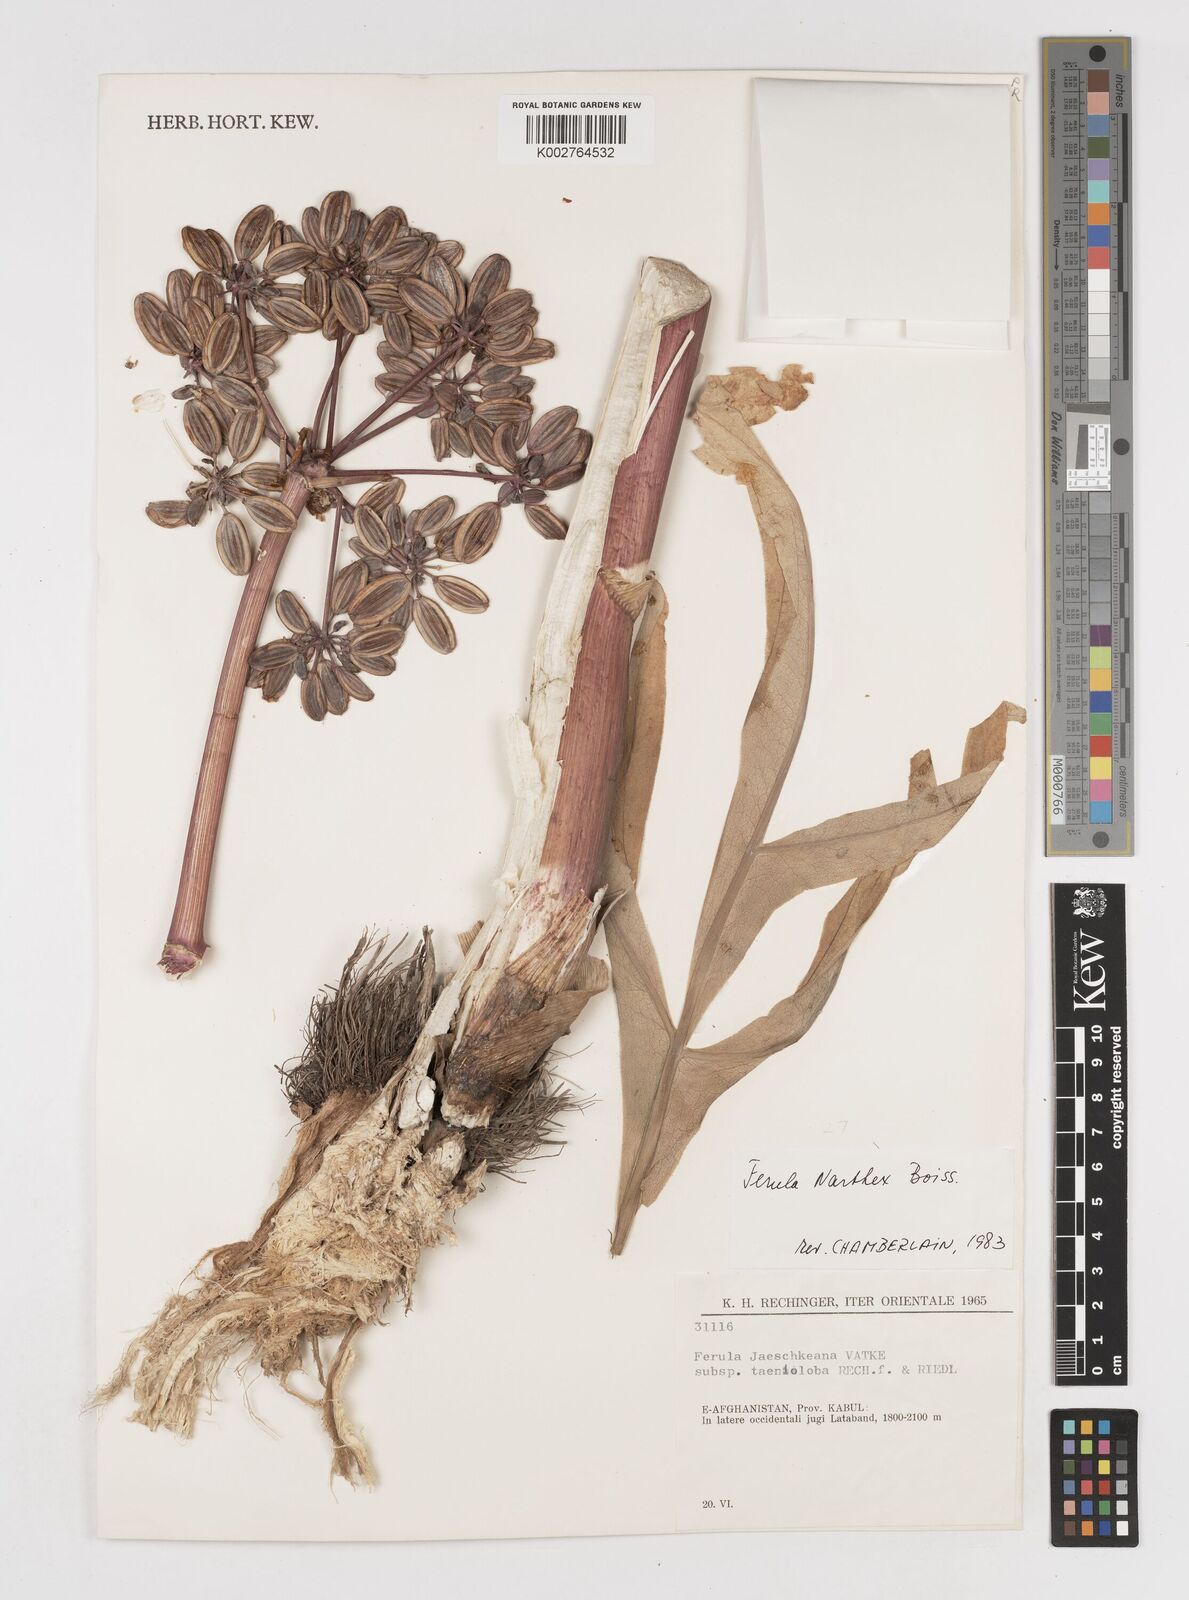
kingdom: Plantae
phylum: Tracheophyta
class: Magnoliopsida
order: Apiales
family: Apiaceae
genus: Ferula
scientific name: Ferula narthex
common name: Hing asafetida
